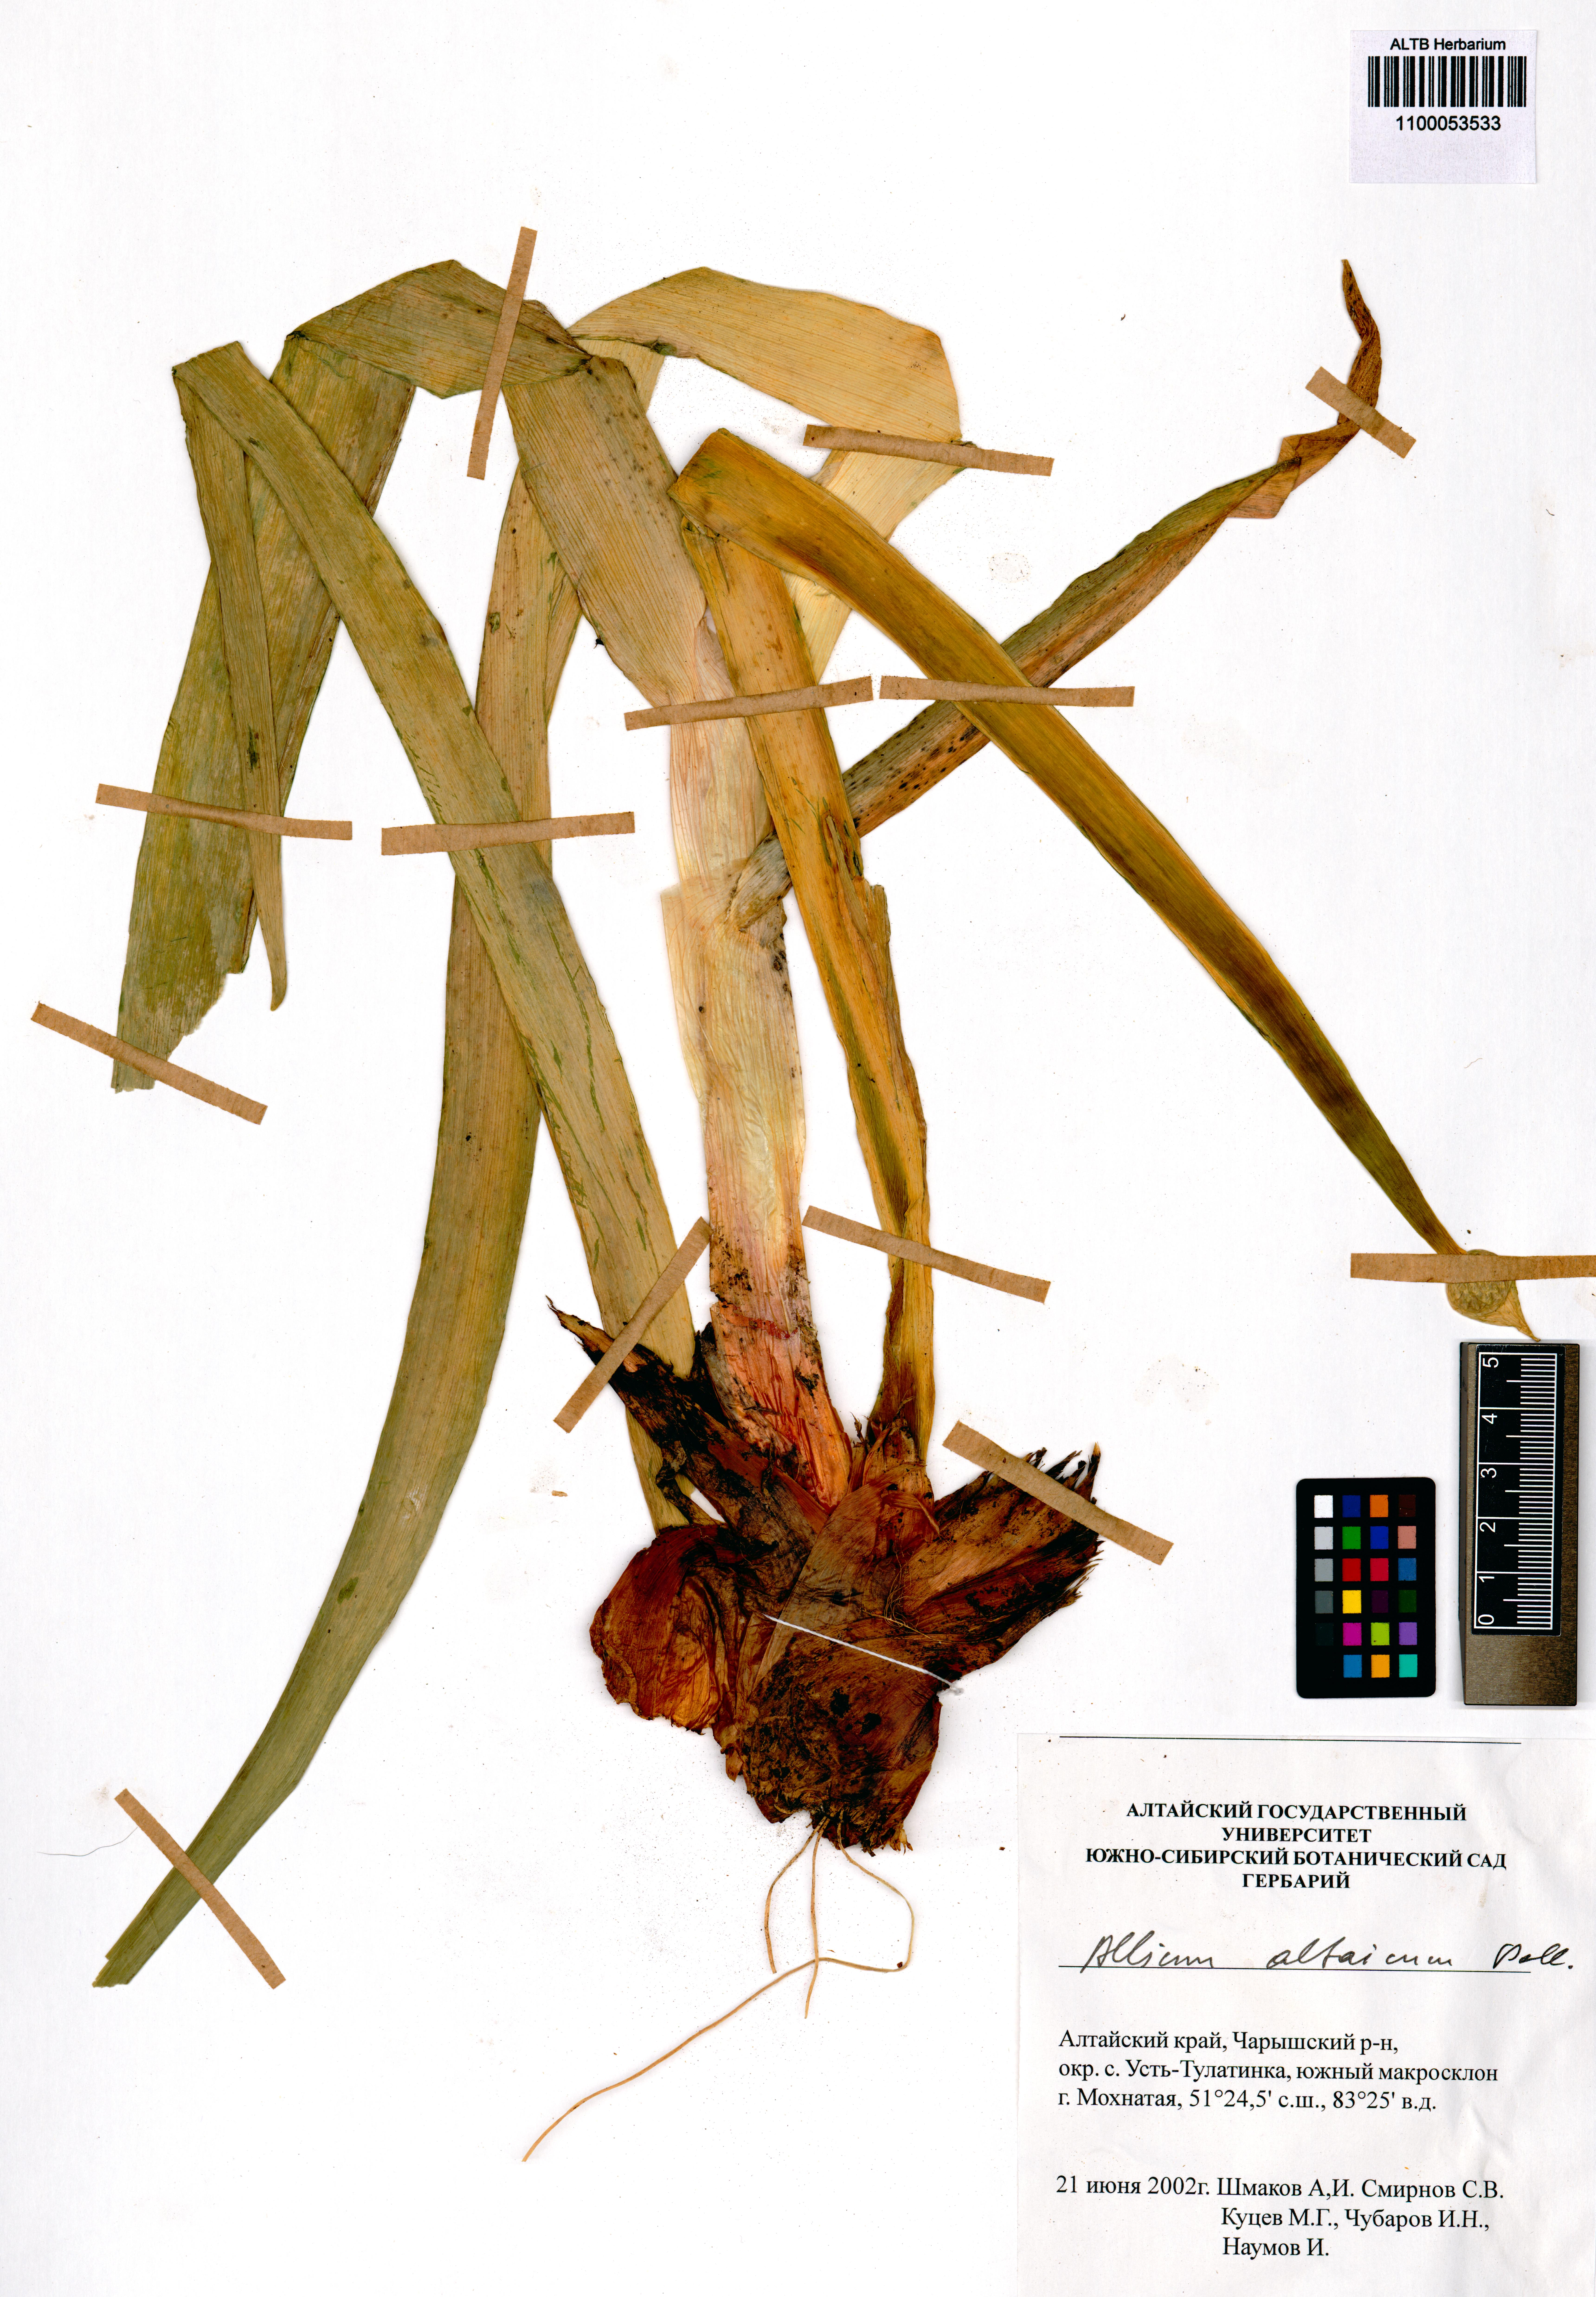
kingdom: Plantae
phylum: Tracheophyta
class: Liliopsida
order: Asparagales
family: Amaryllidaceae
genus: Allium
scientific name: Allium altaicum
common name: Altai onion
